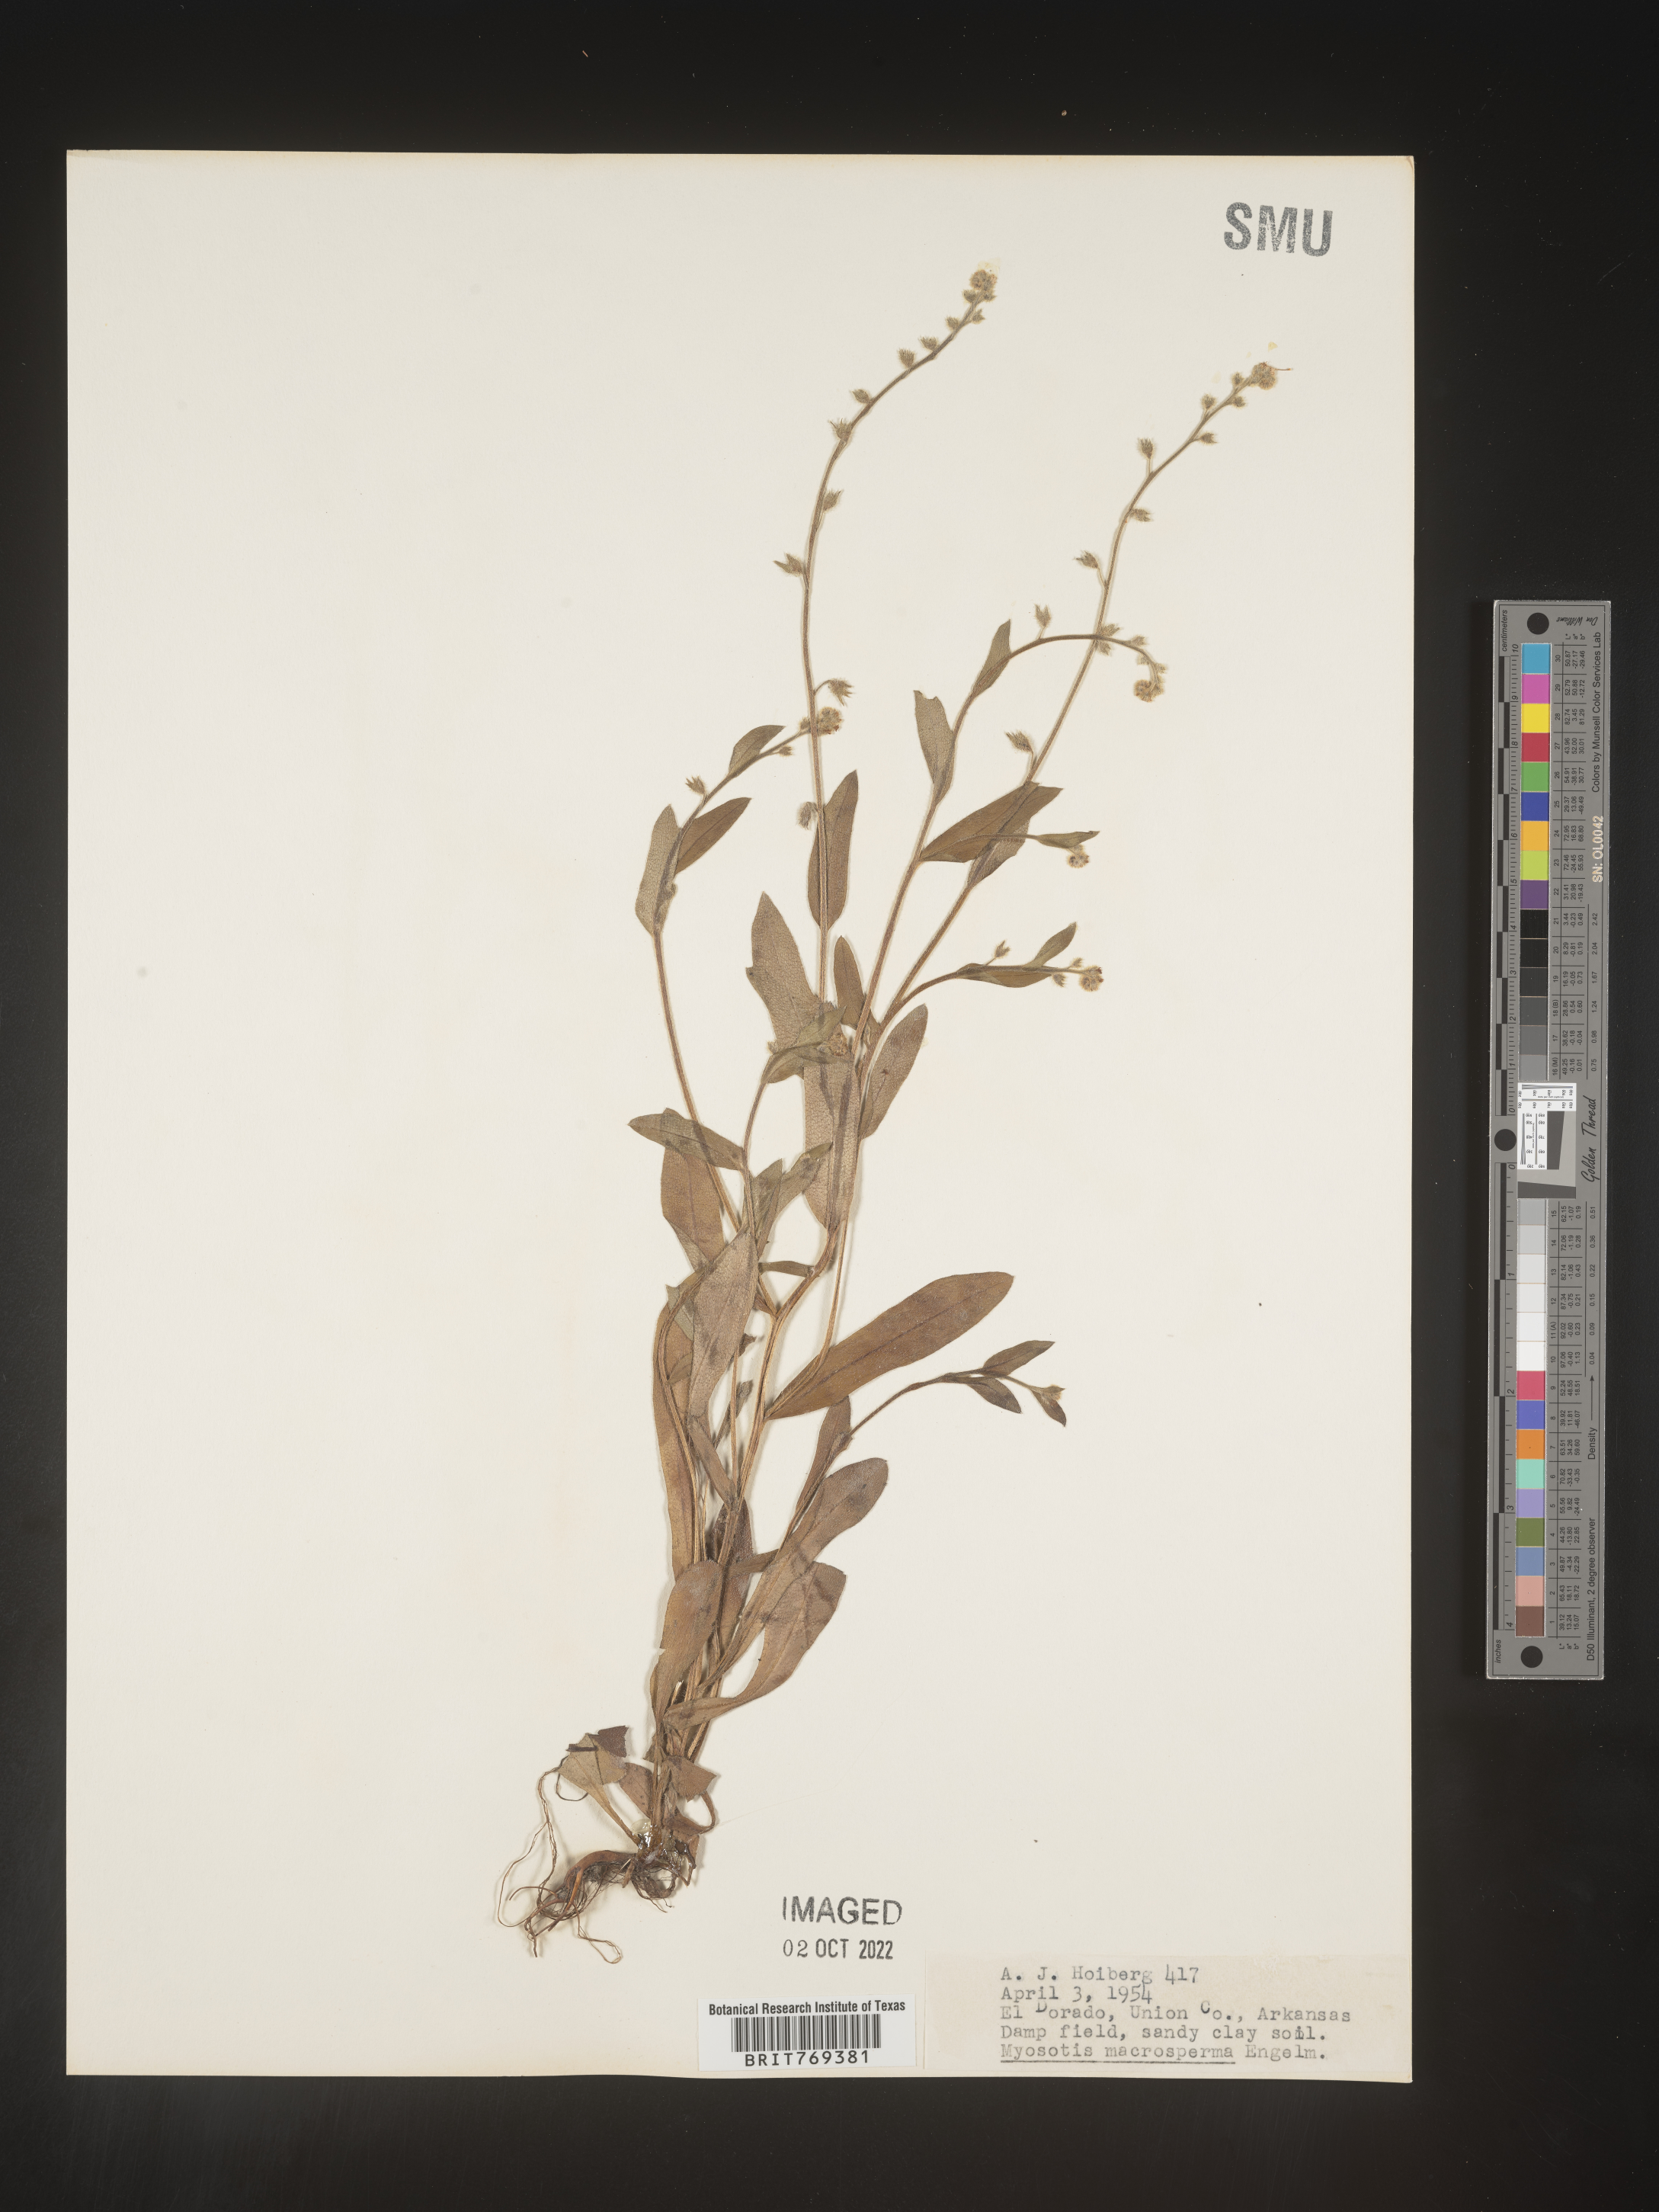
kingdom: Plantae
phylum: Tracheophyta
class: Magnoliopsida
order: Boraginales
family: Boraginaceae
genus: Myosotis
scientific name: Myosotis macrosperma
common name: Large-seed forget-me-not
